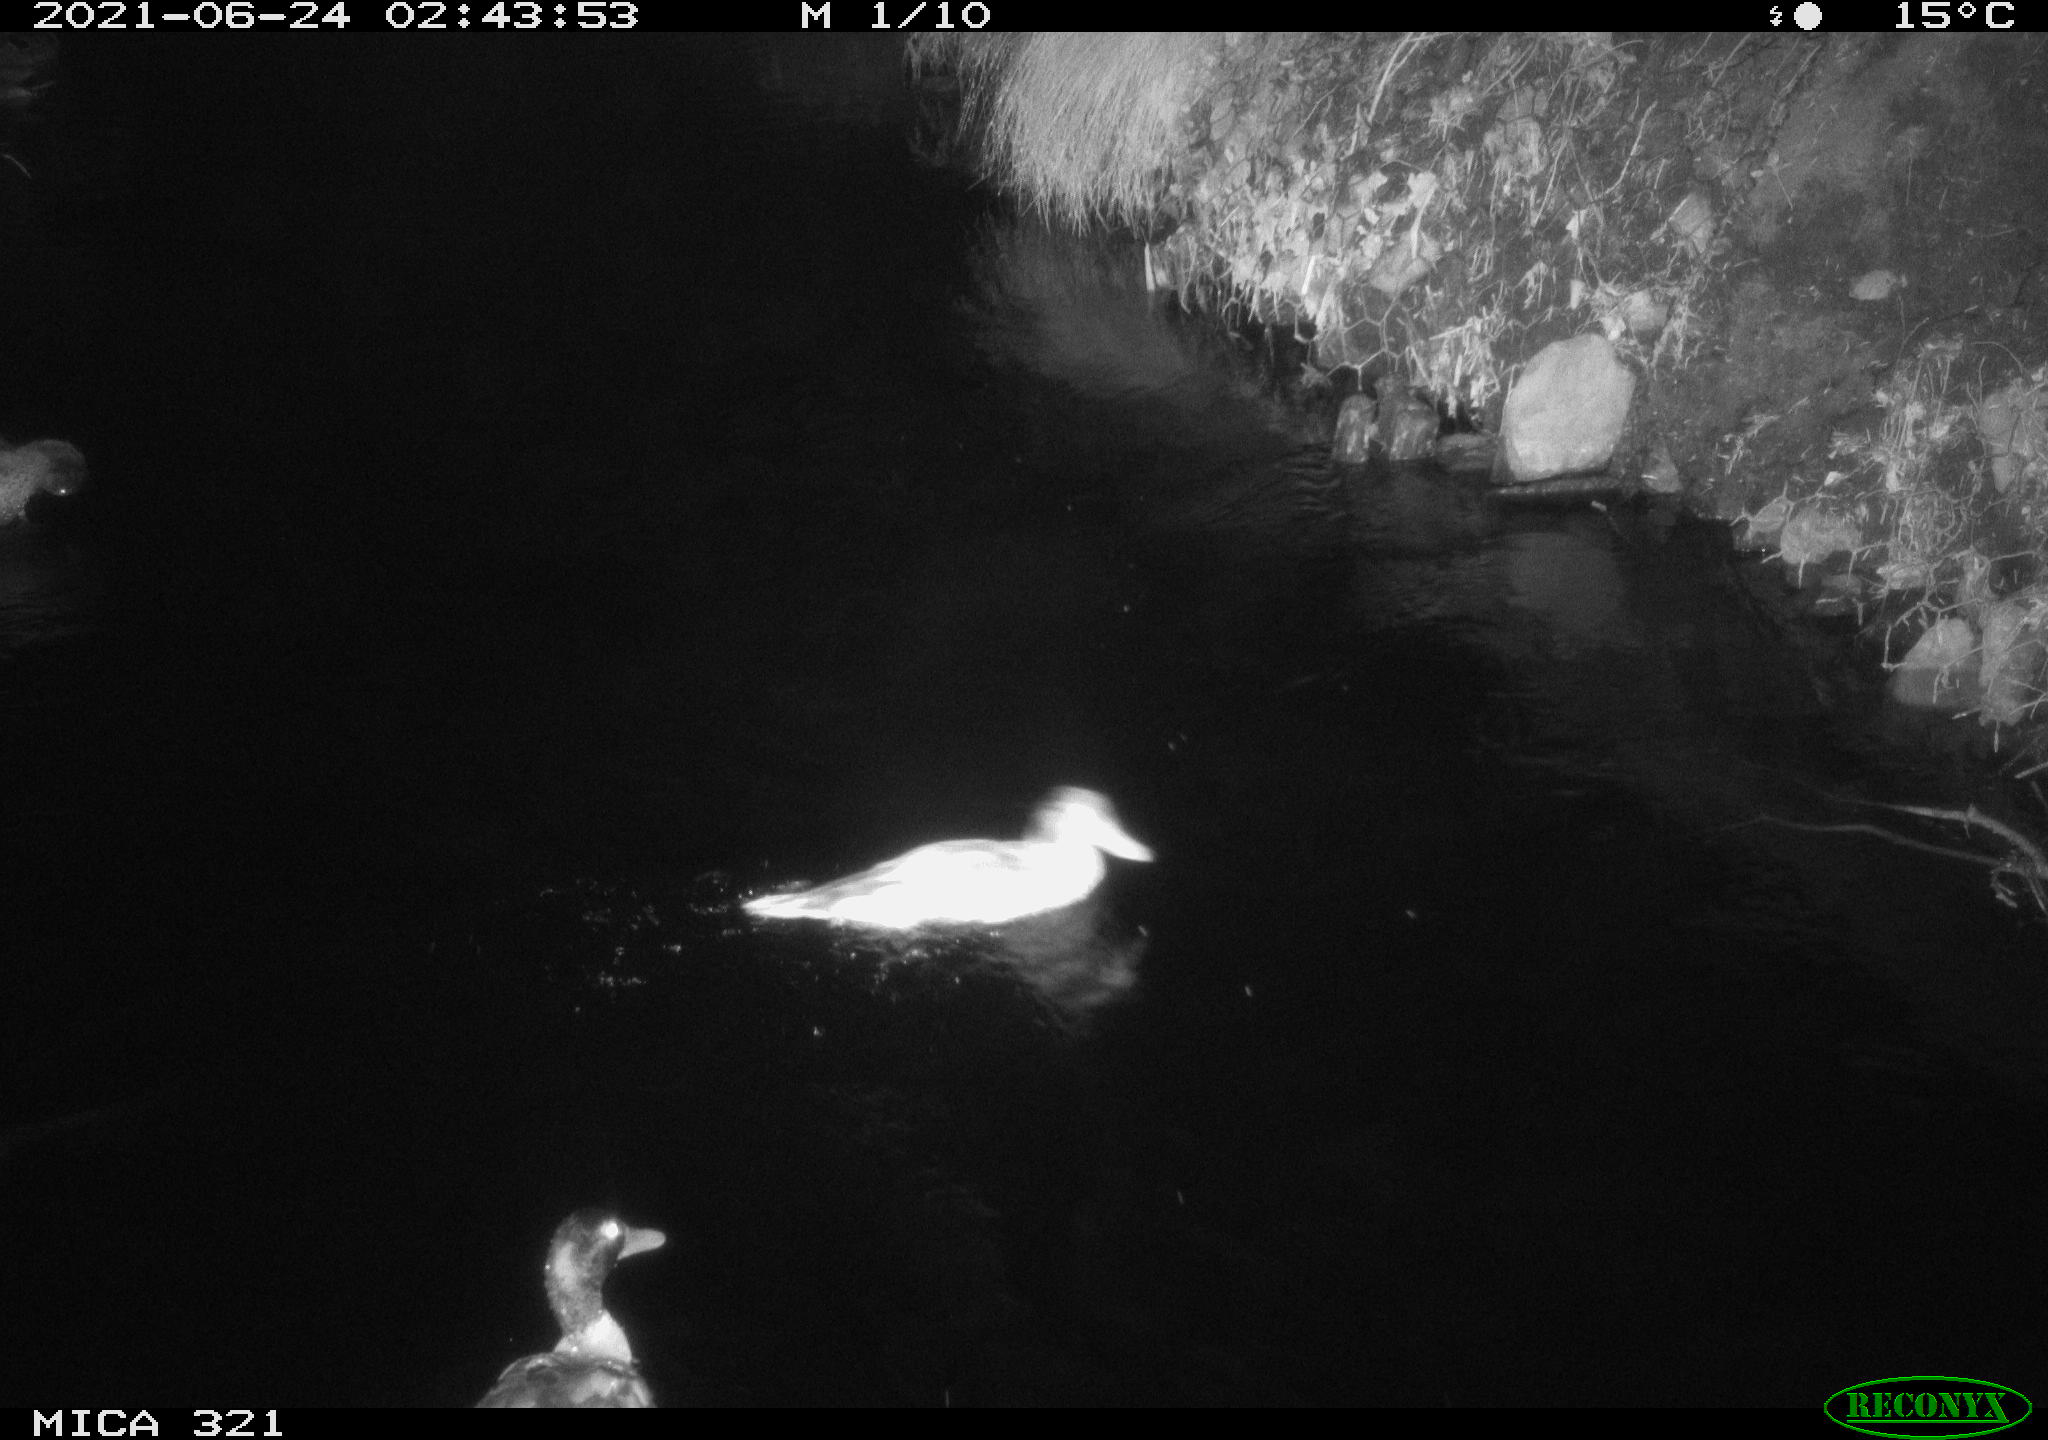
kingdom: Animalia
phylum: Chordata
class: Aves
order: Anseriformes
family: Anatidae
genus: Anas
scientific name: Anas platyrhynchos
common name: Mallard
